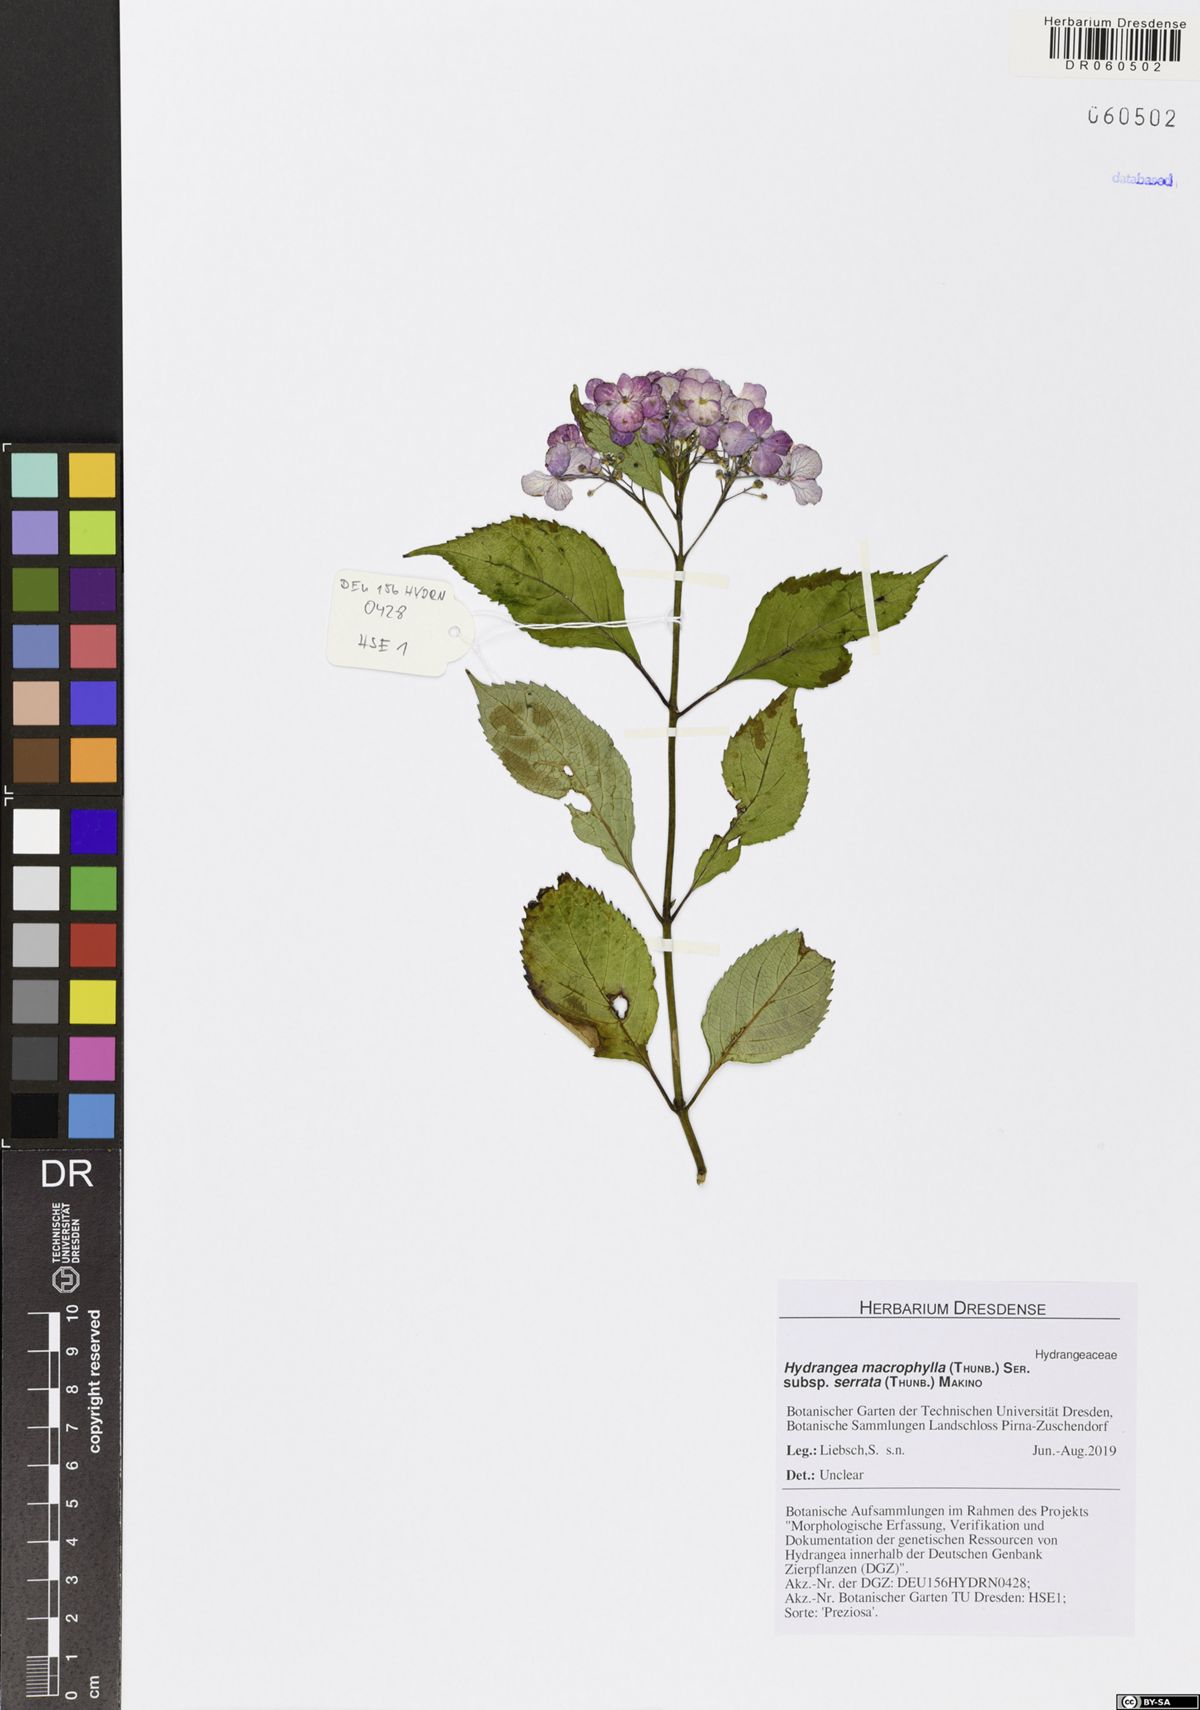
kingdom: Plantae
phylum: Tracheophyta
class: Magnoliopsida
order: Cornales
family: Hydrangeaceae
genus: Hydrangea
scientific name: Hydrangea serrata
